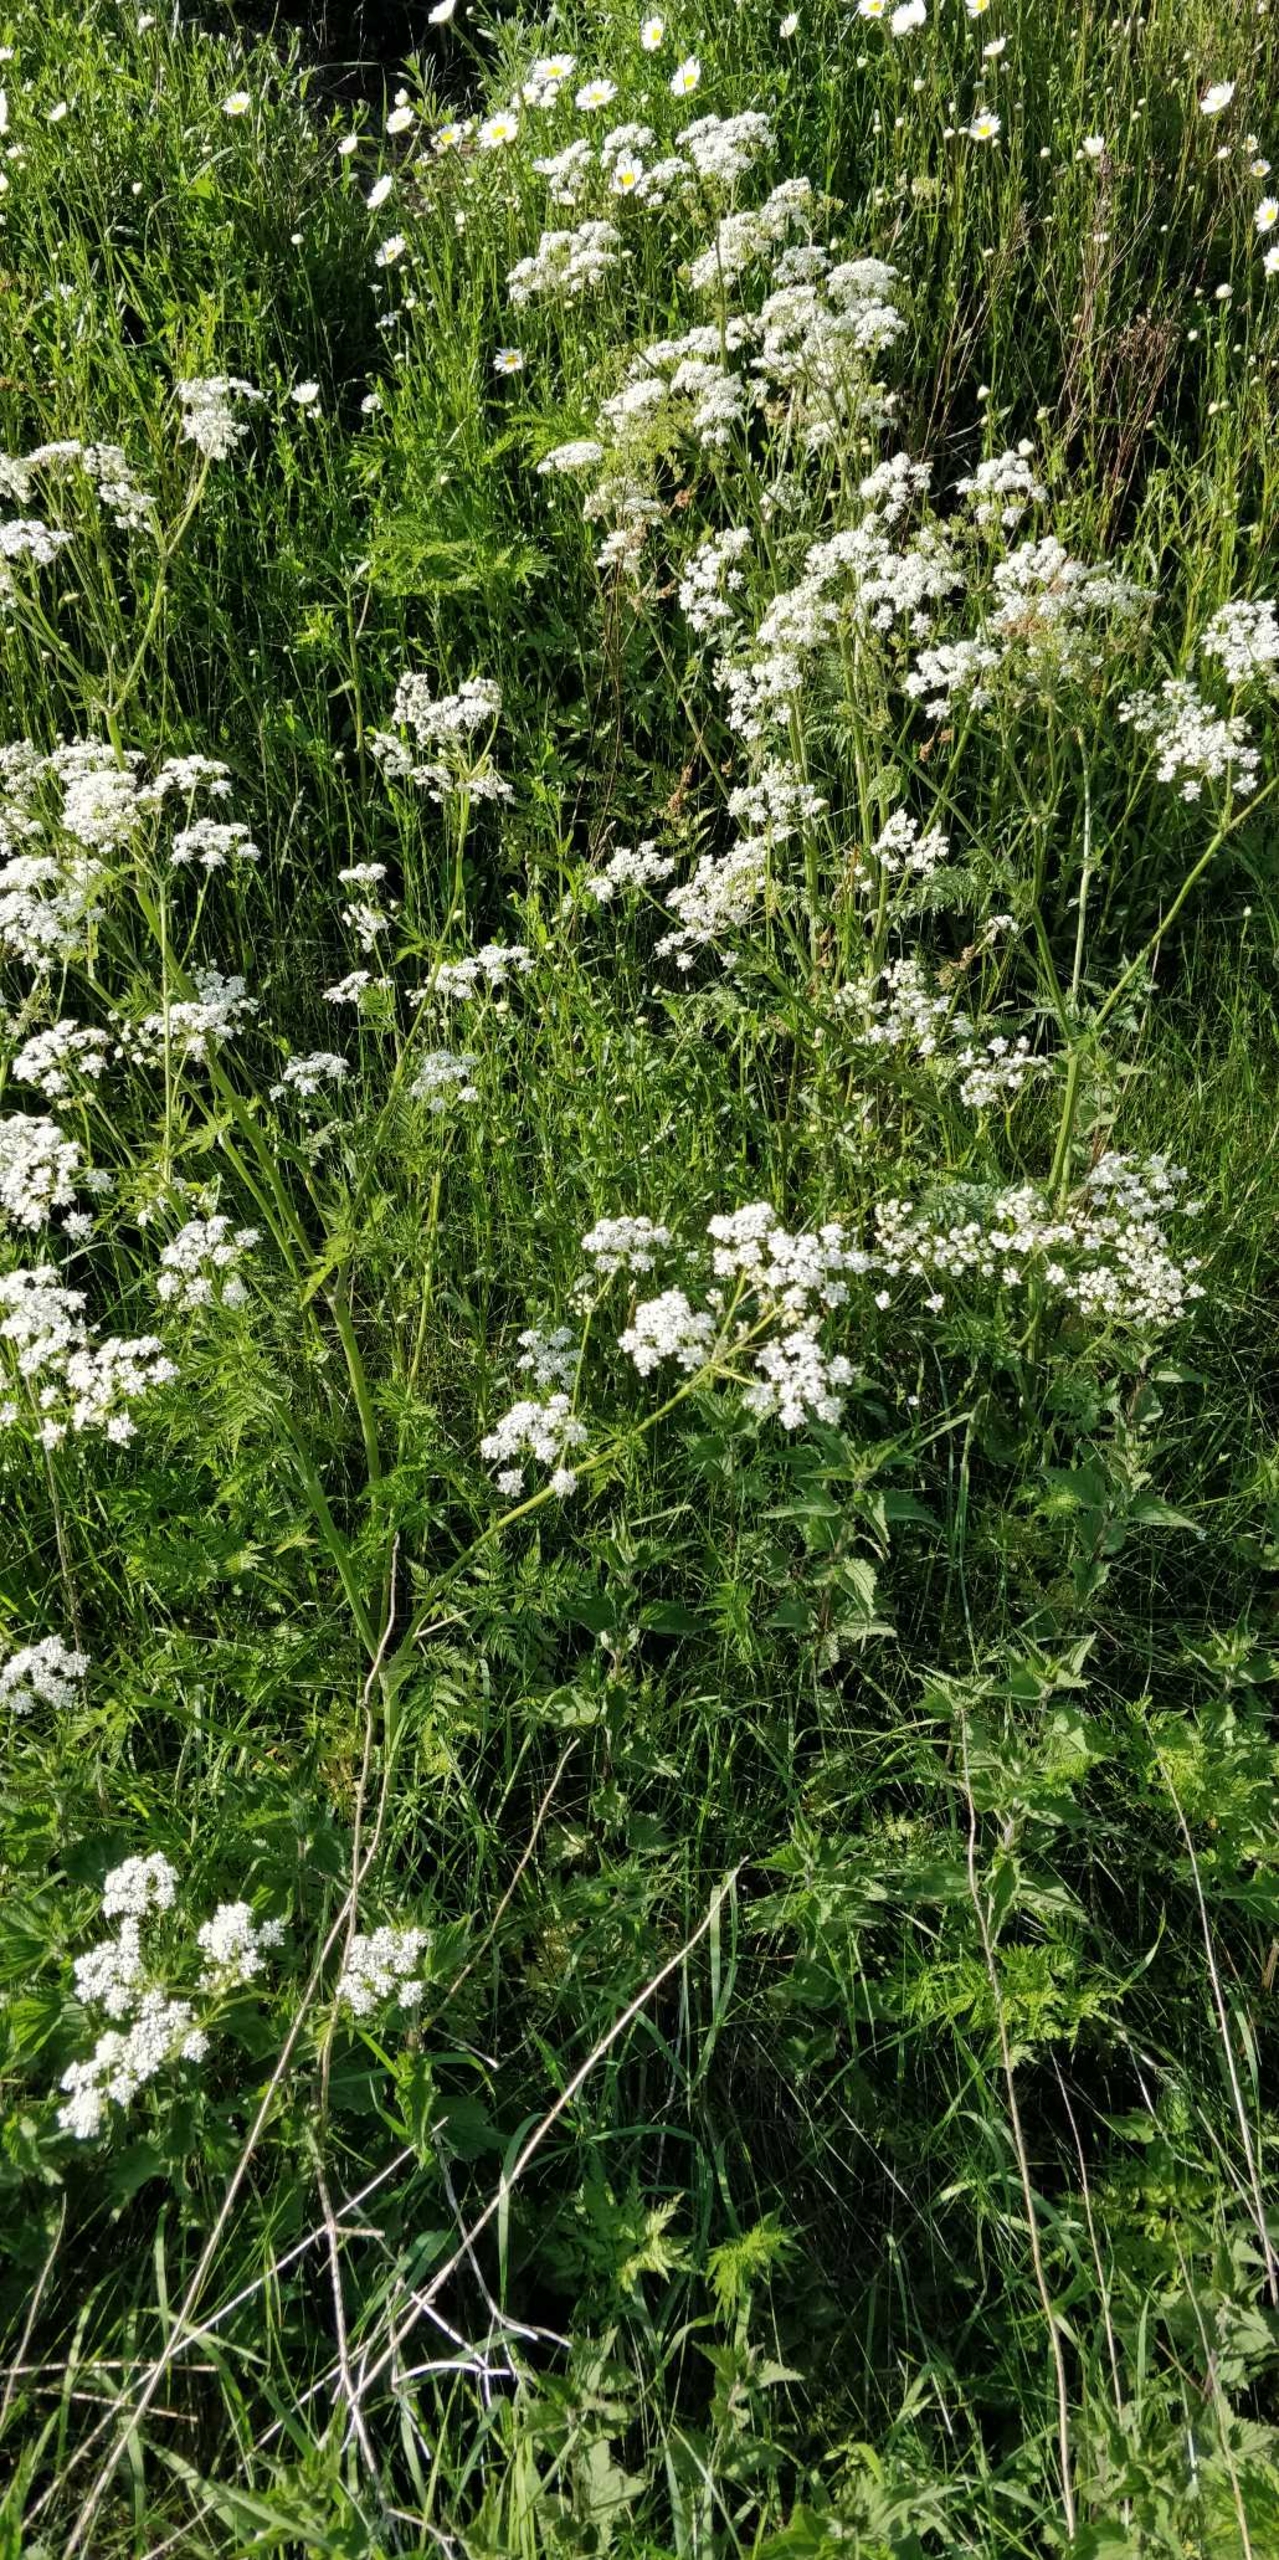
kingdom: Plantae
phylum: Tracheophyta
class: Magnoliopsida
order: Apiales
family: Apiaceae
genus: Anthriscus
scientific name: Anthriscus sylvestris
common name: Vild kørvel
